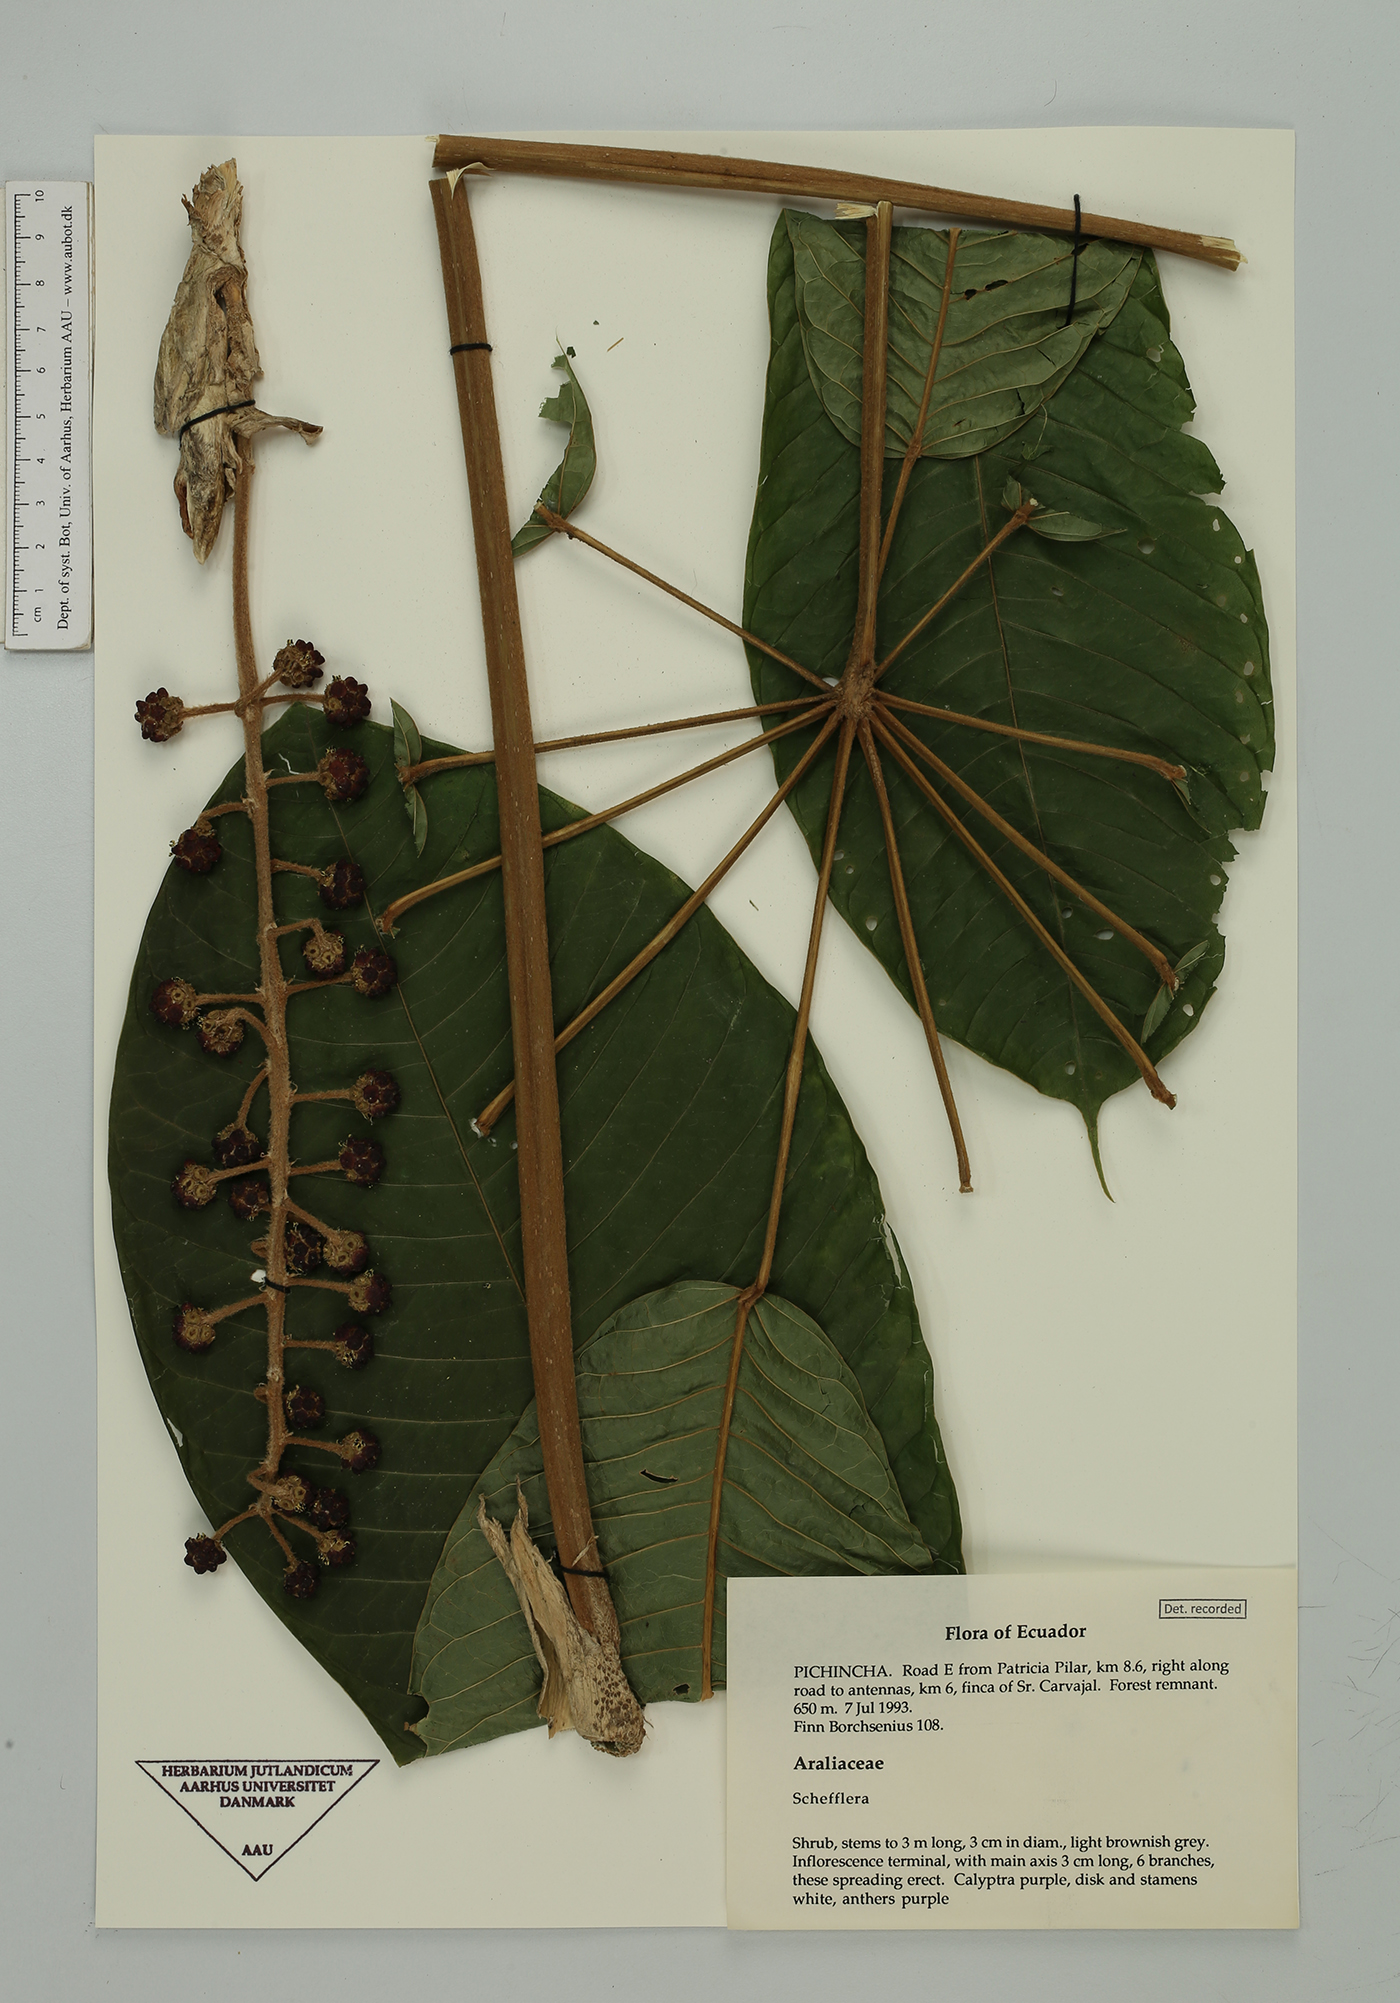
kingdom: Plantae
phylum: Tracheophyta
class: Magnoliopsida
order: Apiales
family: Araliaceae
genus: Schefflera
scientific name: Schefflera
